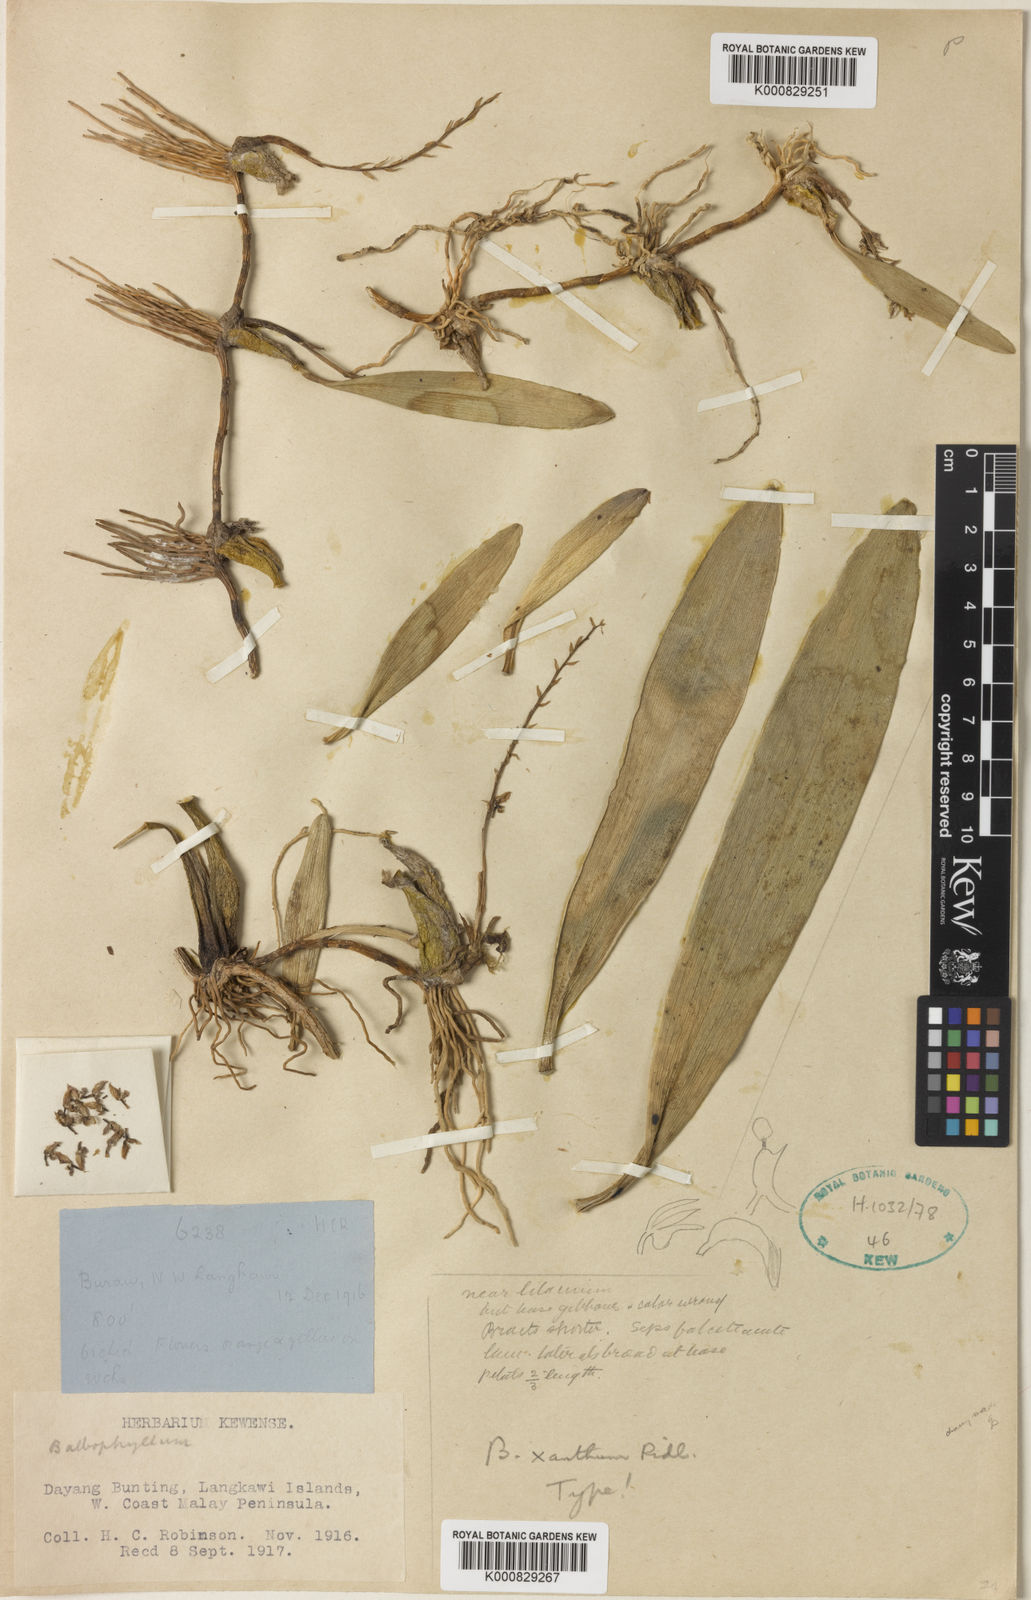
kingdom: Plantae
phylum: Tracheophyta
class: Liliopsida
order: Asparagales
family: Orchidaceae
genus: Bulbophyllum
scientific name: Bulbophyllum xanthum
